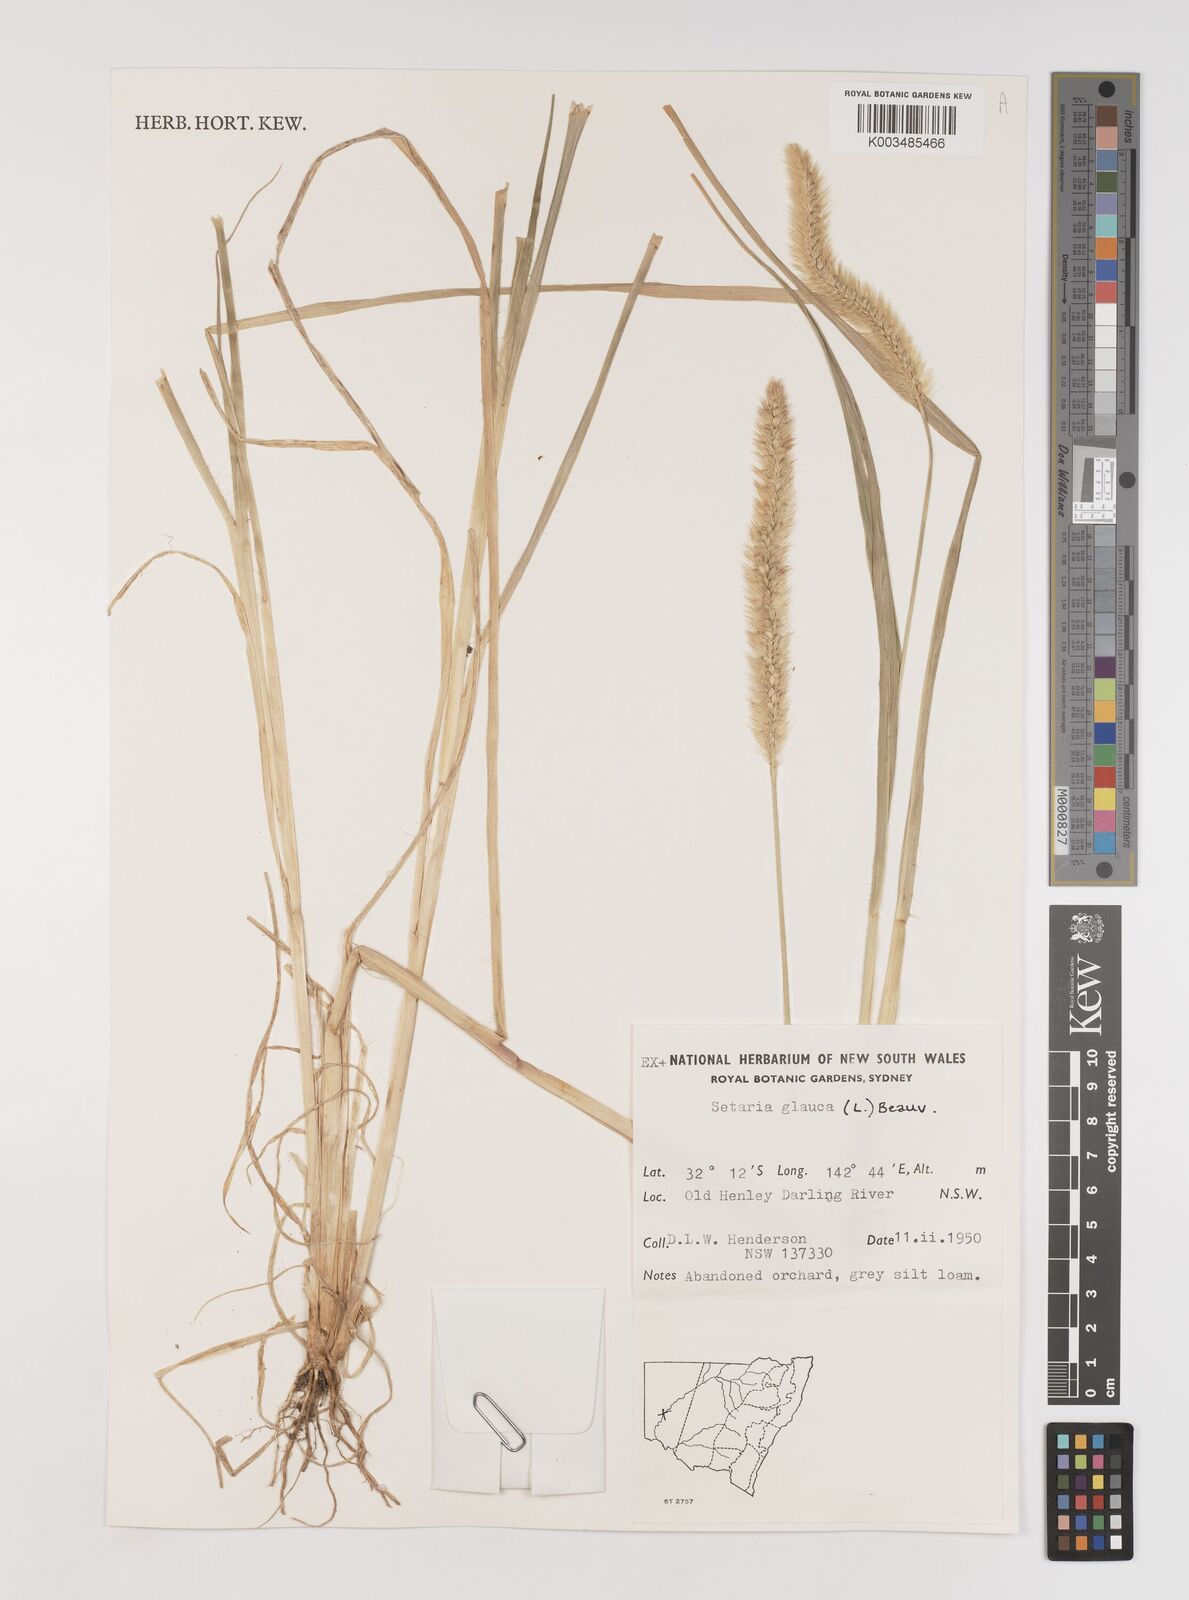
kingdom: Plantae
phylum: Tracheophyta
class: Liliopsida
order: Poales
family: Poaceae
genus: Setaria
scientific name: Setaria pumila
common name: Yellow bristle-grass
